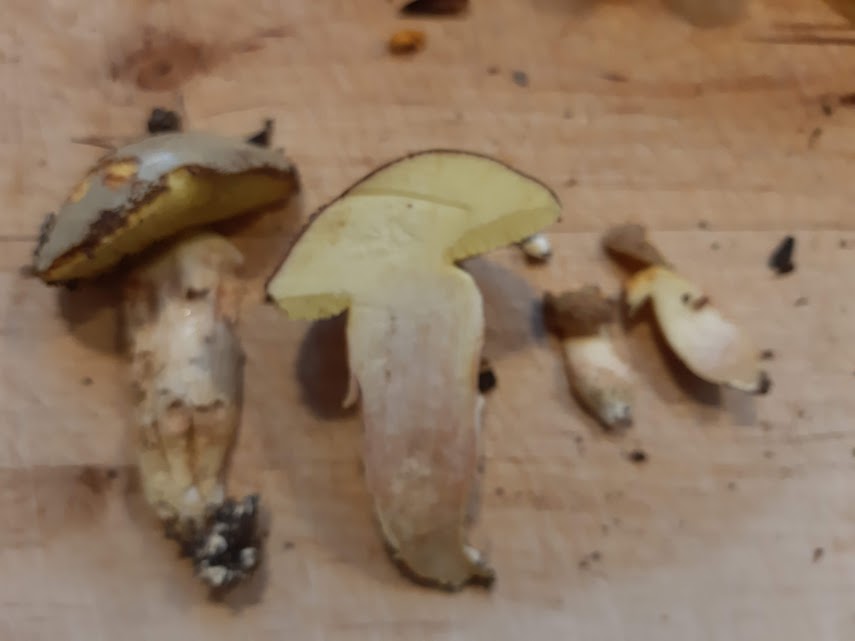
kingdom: Fungi
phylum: Basidiomycota
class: Agaricomycetes
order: Boletales
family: Boletaceae
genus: Xerocomus
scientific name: Xerocomus subtomentosus
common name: filtet rørhat
